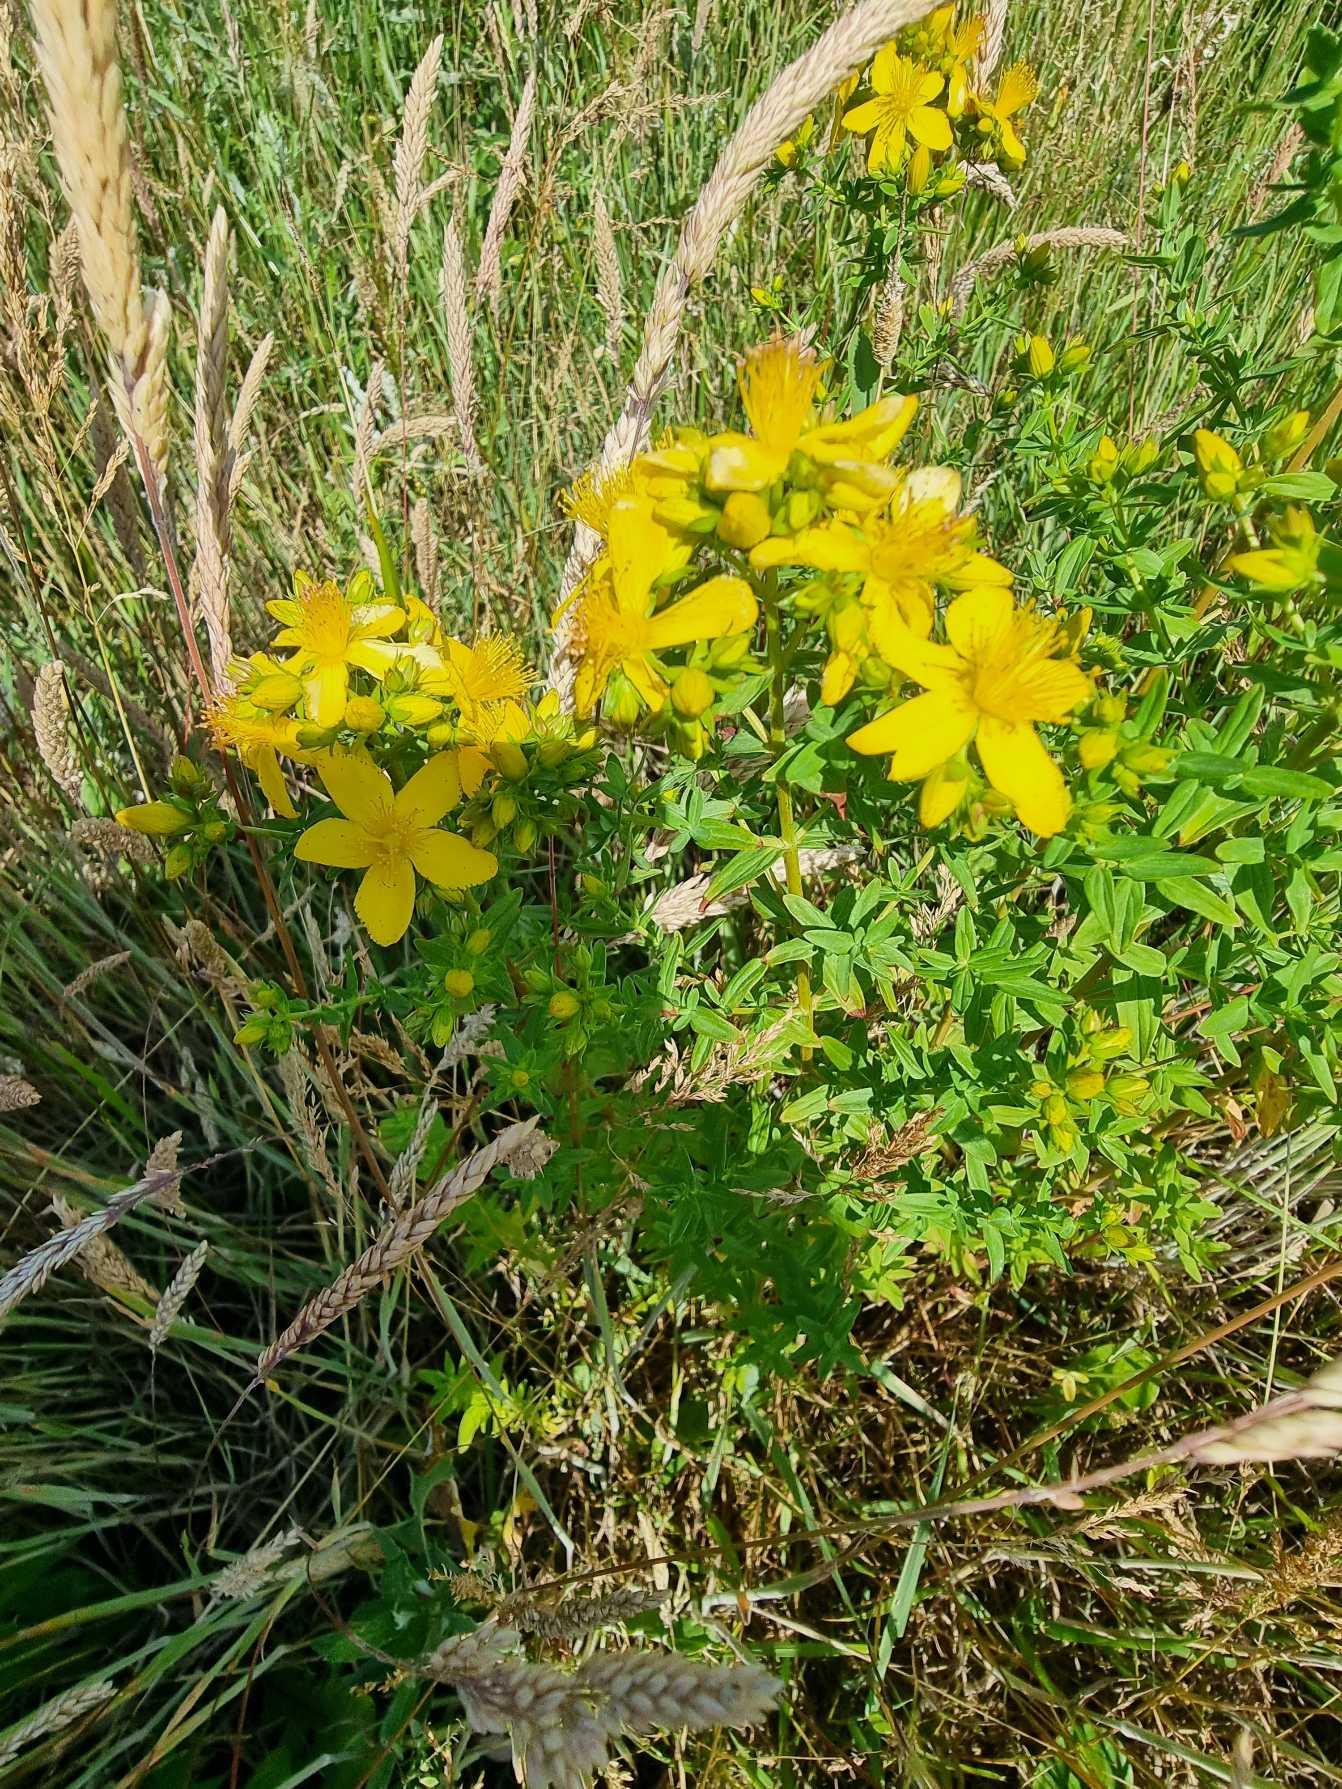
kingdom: Plantae
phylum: Tracheophyta
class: Magnoliopsida
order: Malpighiales
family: Hypericaceae
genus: Hypericum
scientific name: Hypericum perforatum
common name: Prikbladet perikon
